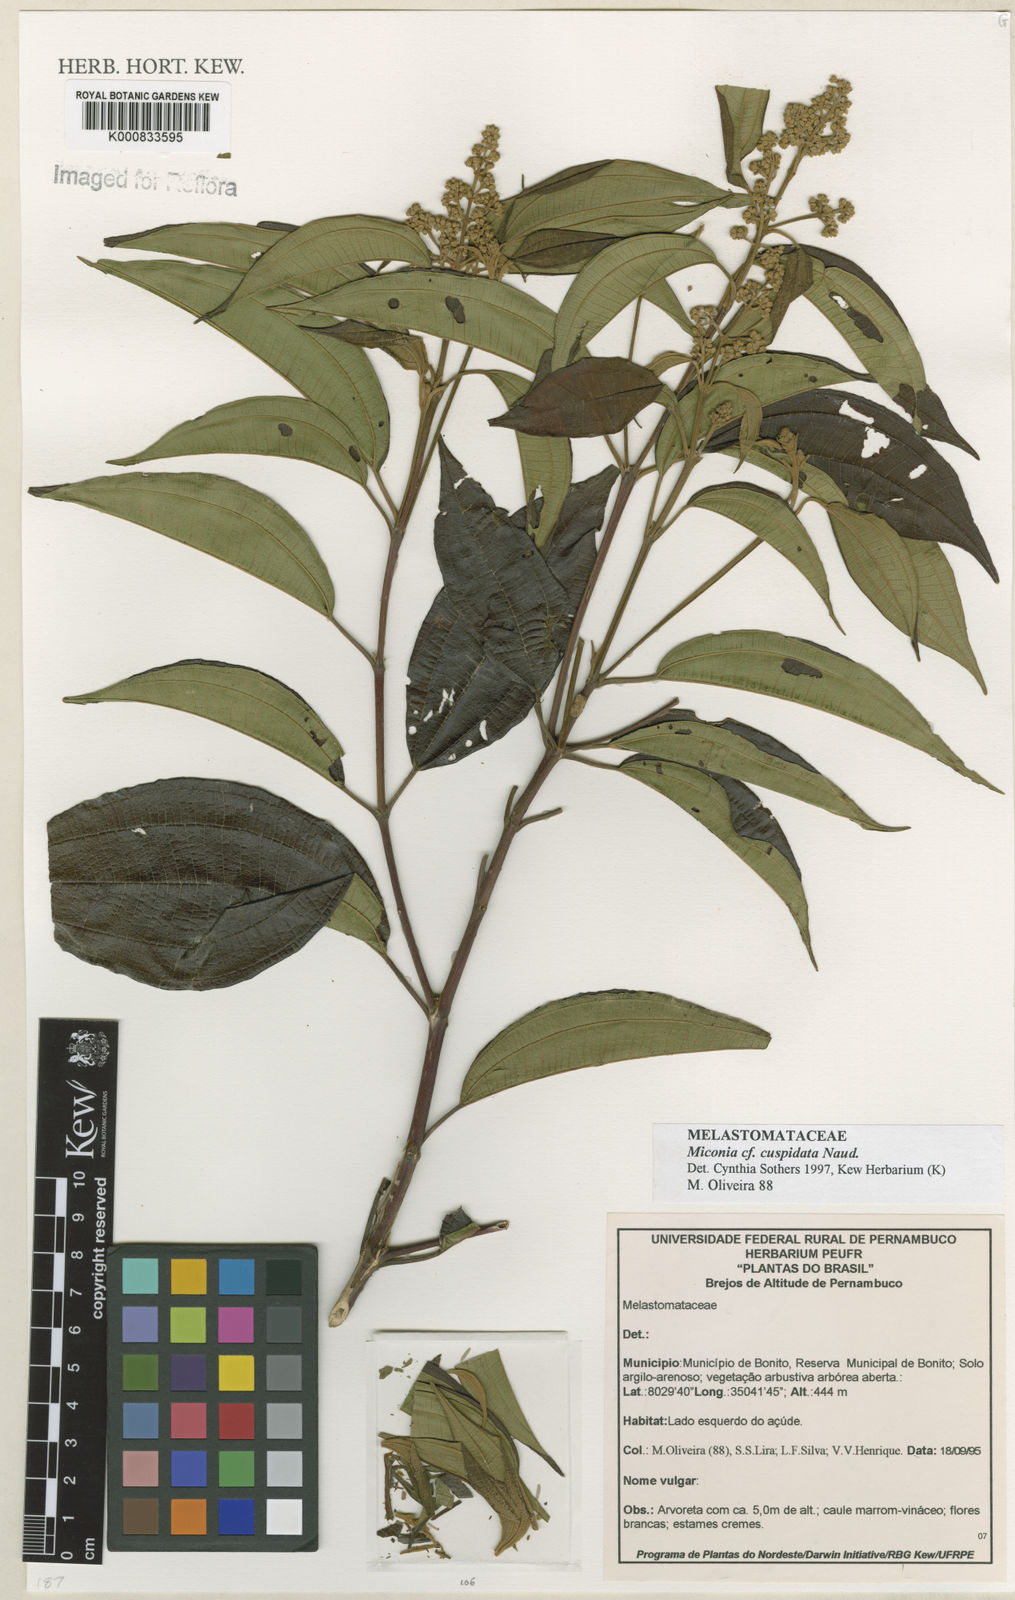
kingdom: Plantae
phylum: Tracheophyta
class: Magnoliopsida
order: Myrtales
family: Melastomataceae
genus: Miconia
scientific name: Miconia nordestina
